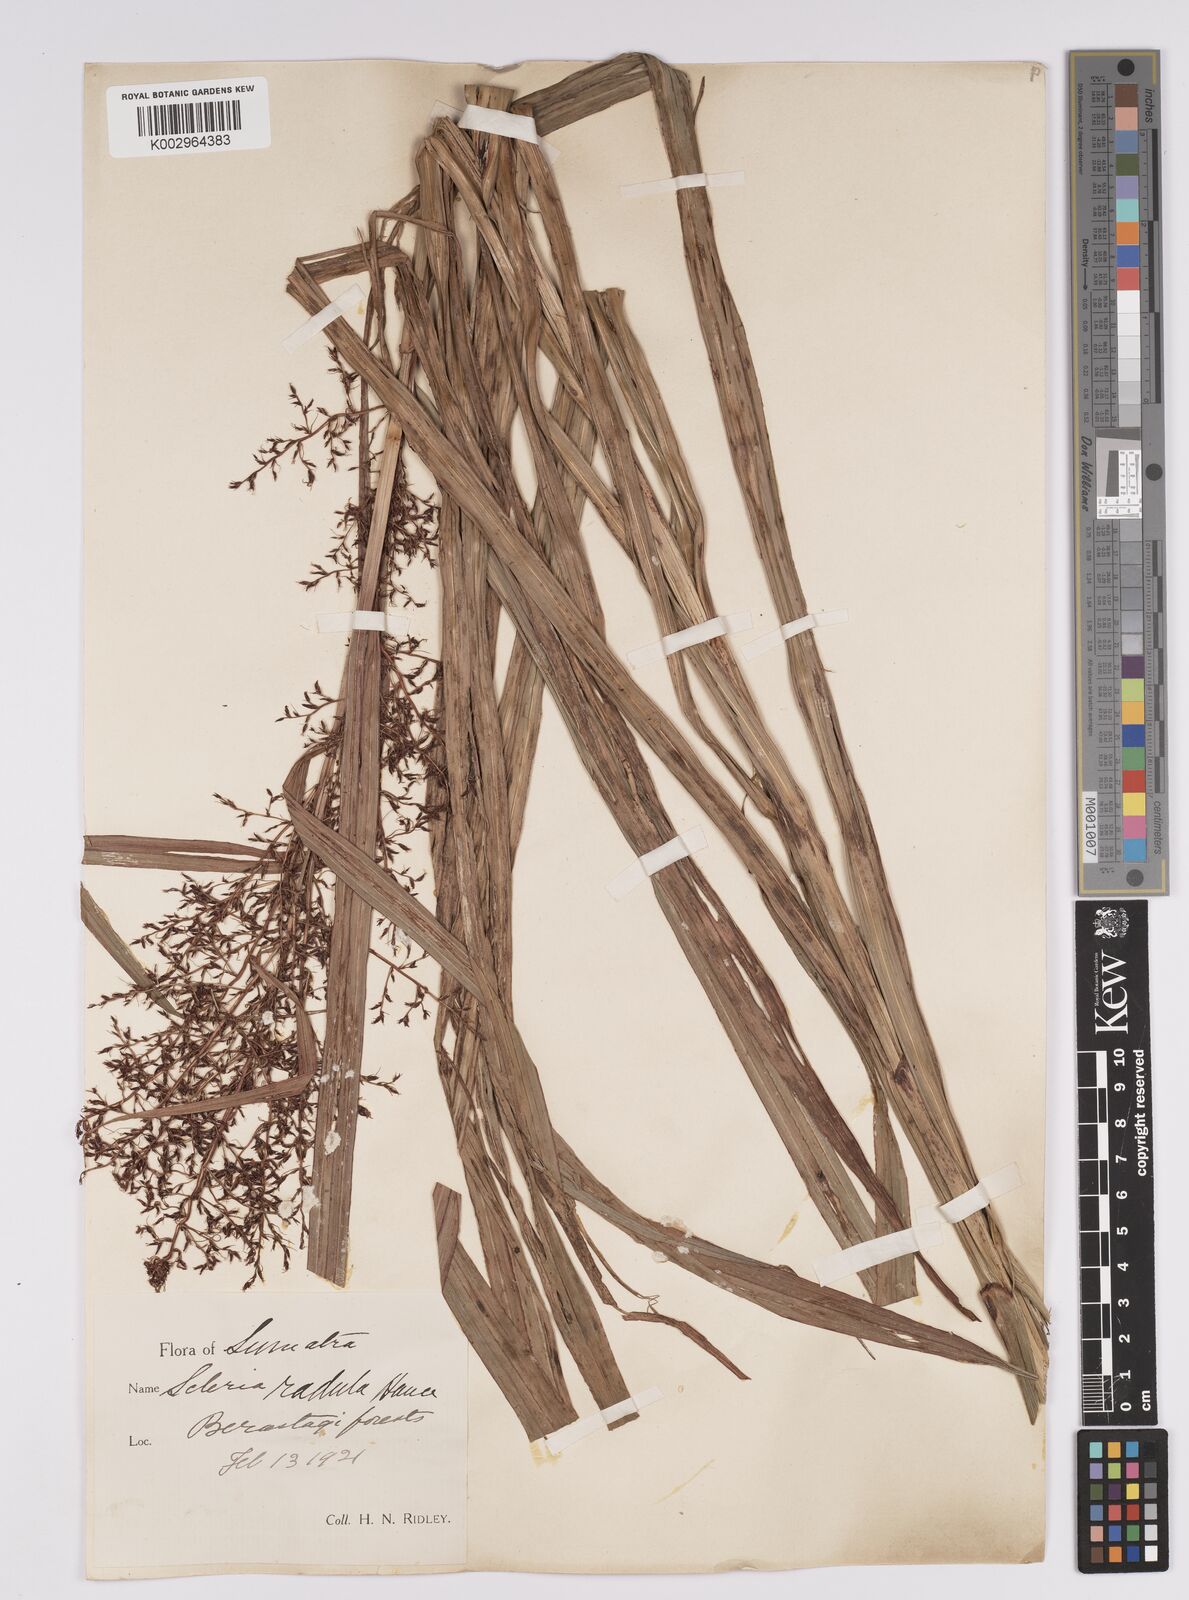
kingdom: Plantae
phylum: Tracheophyta
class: Liliopsida
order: Poales
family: Cyperaceae
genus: Scleria
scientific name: Scleria terrestris
